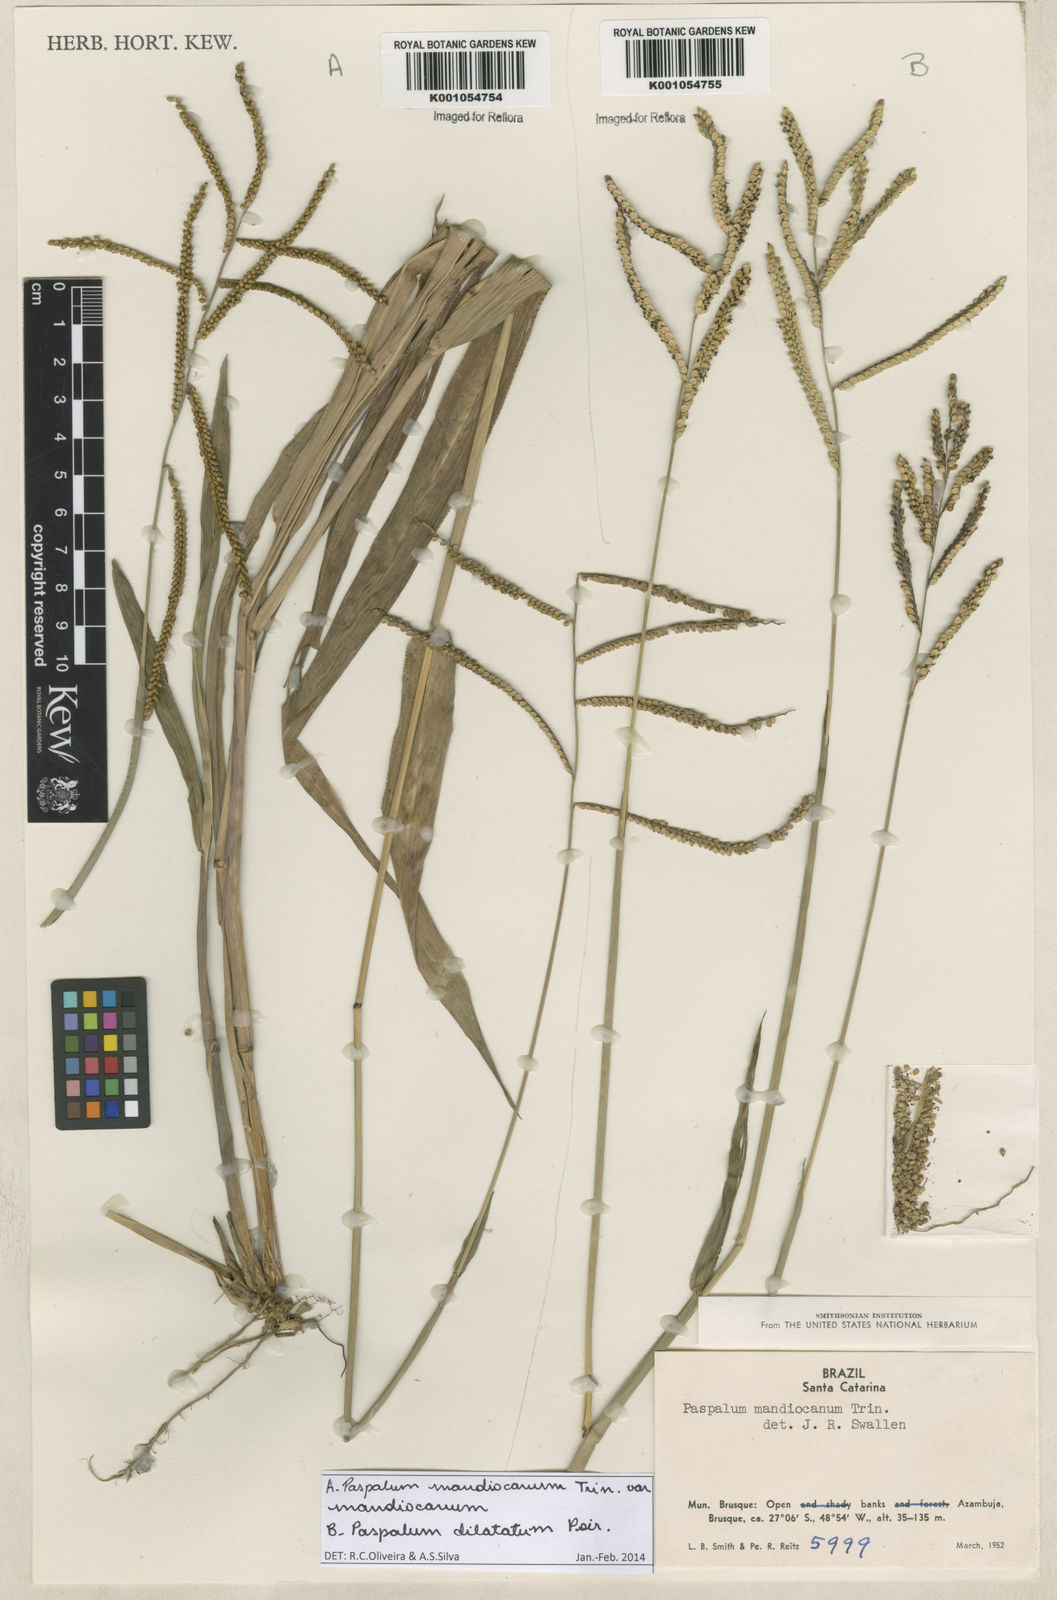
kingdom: Plantae
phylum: Tracheophyta
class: Liliopsida
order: Poales
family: Poaceae
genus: Paspalum
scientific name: Paspalum mandiocanum
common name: Paspalum
